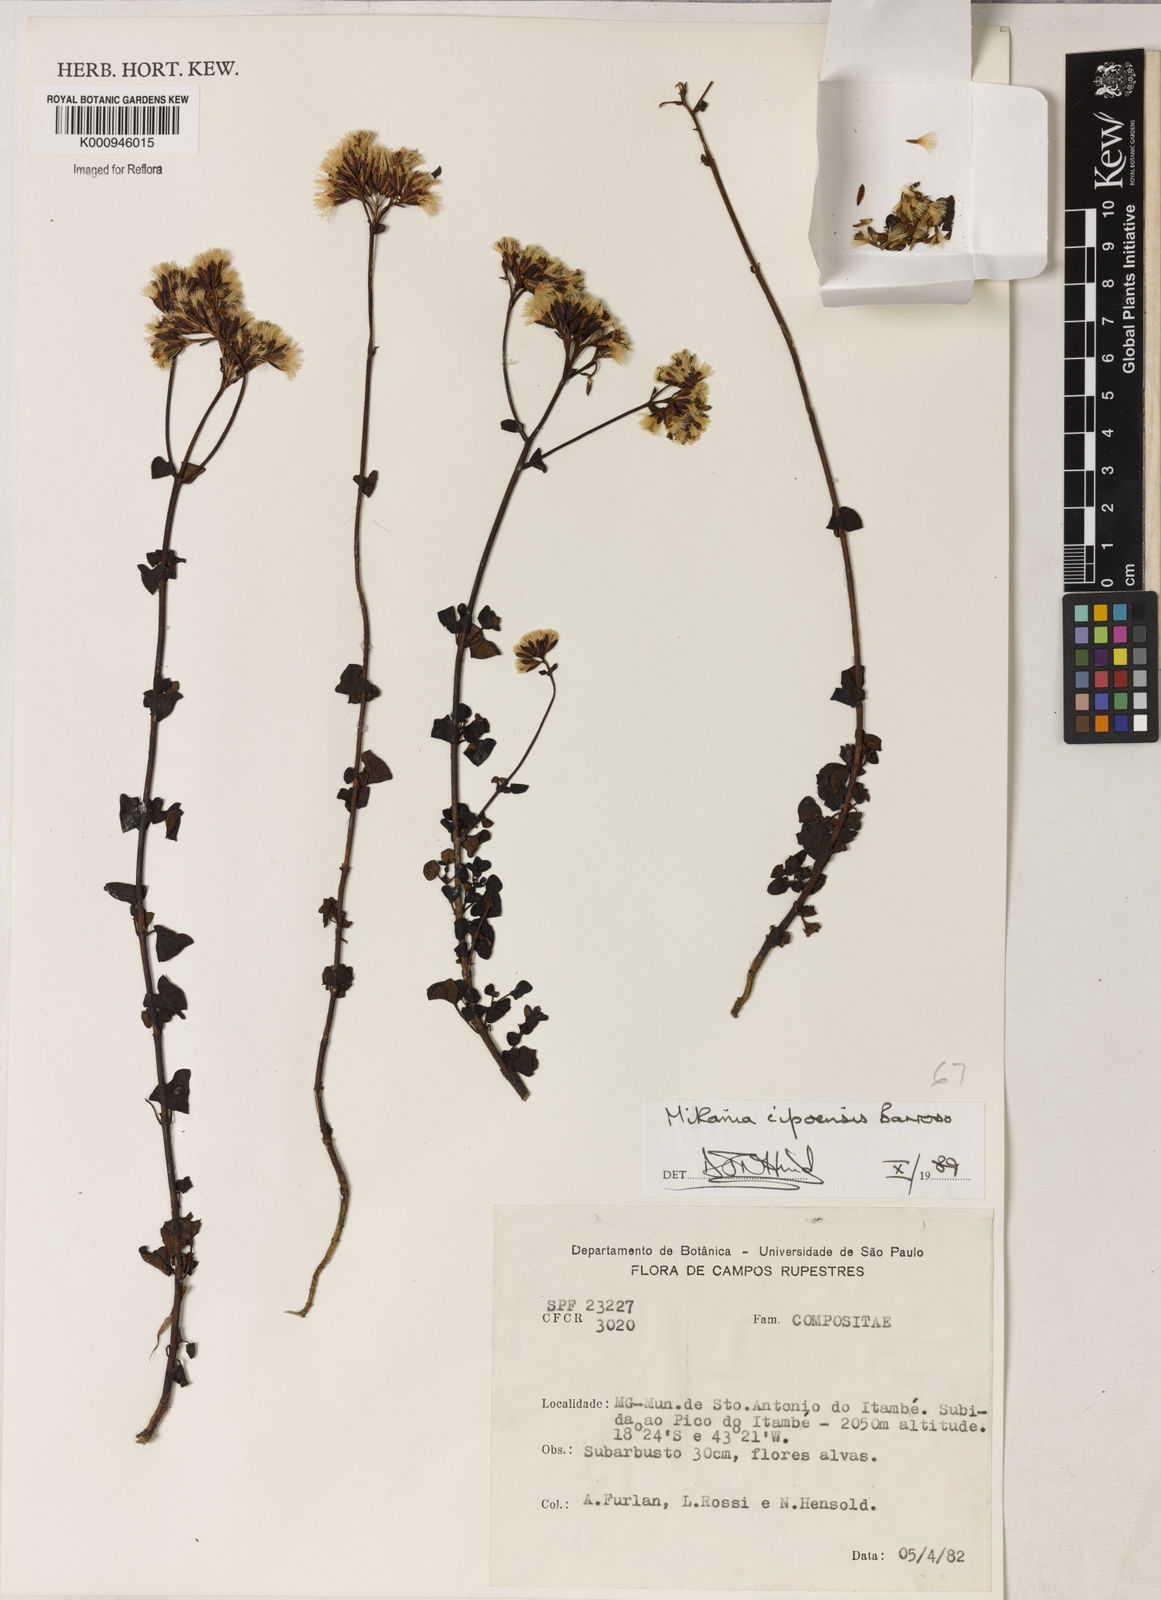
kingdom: Plantae
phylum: Tracheophyta
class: Magnoliopsida
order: Asterales
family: Asteraceae
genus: Mikania
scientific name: Mikania cipoensis
